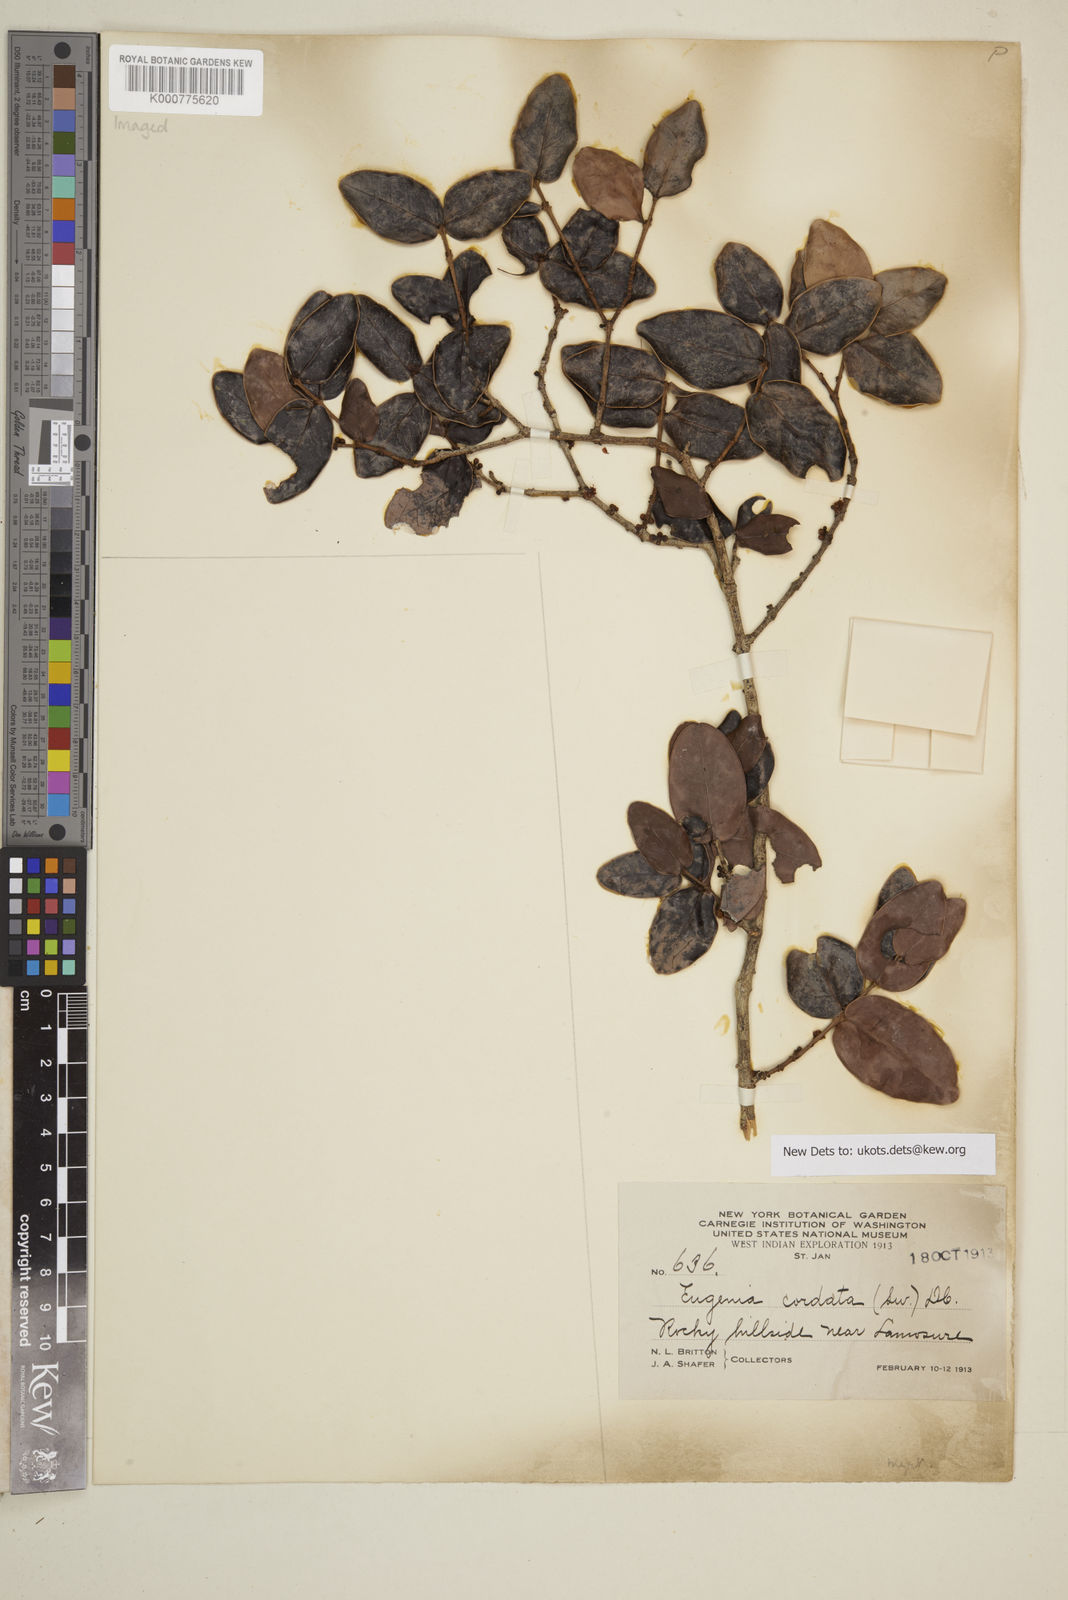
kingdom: Plantae
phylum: Tracheophyta
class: Magnoliopsida
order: Myrtales
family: Myrtaceae
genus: Eugenia
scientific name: Eugenia cordata
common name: Lathberry
